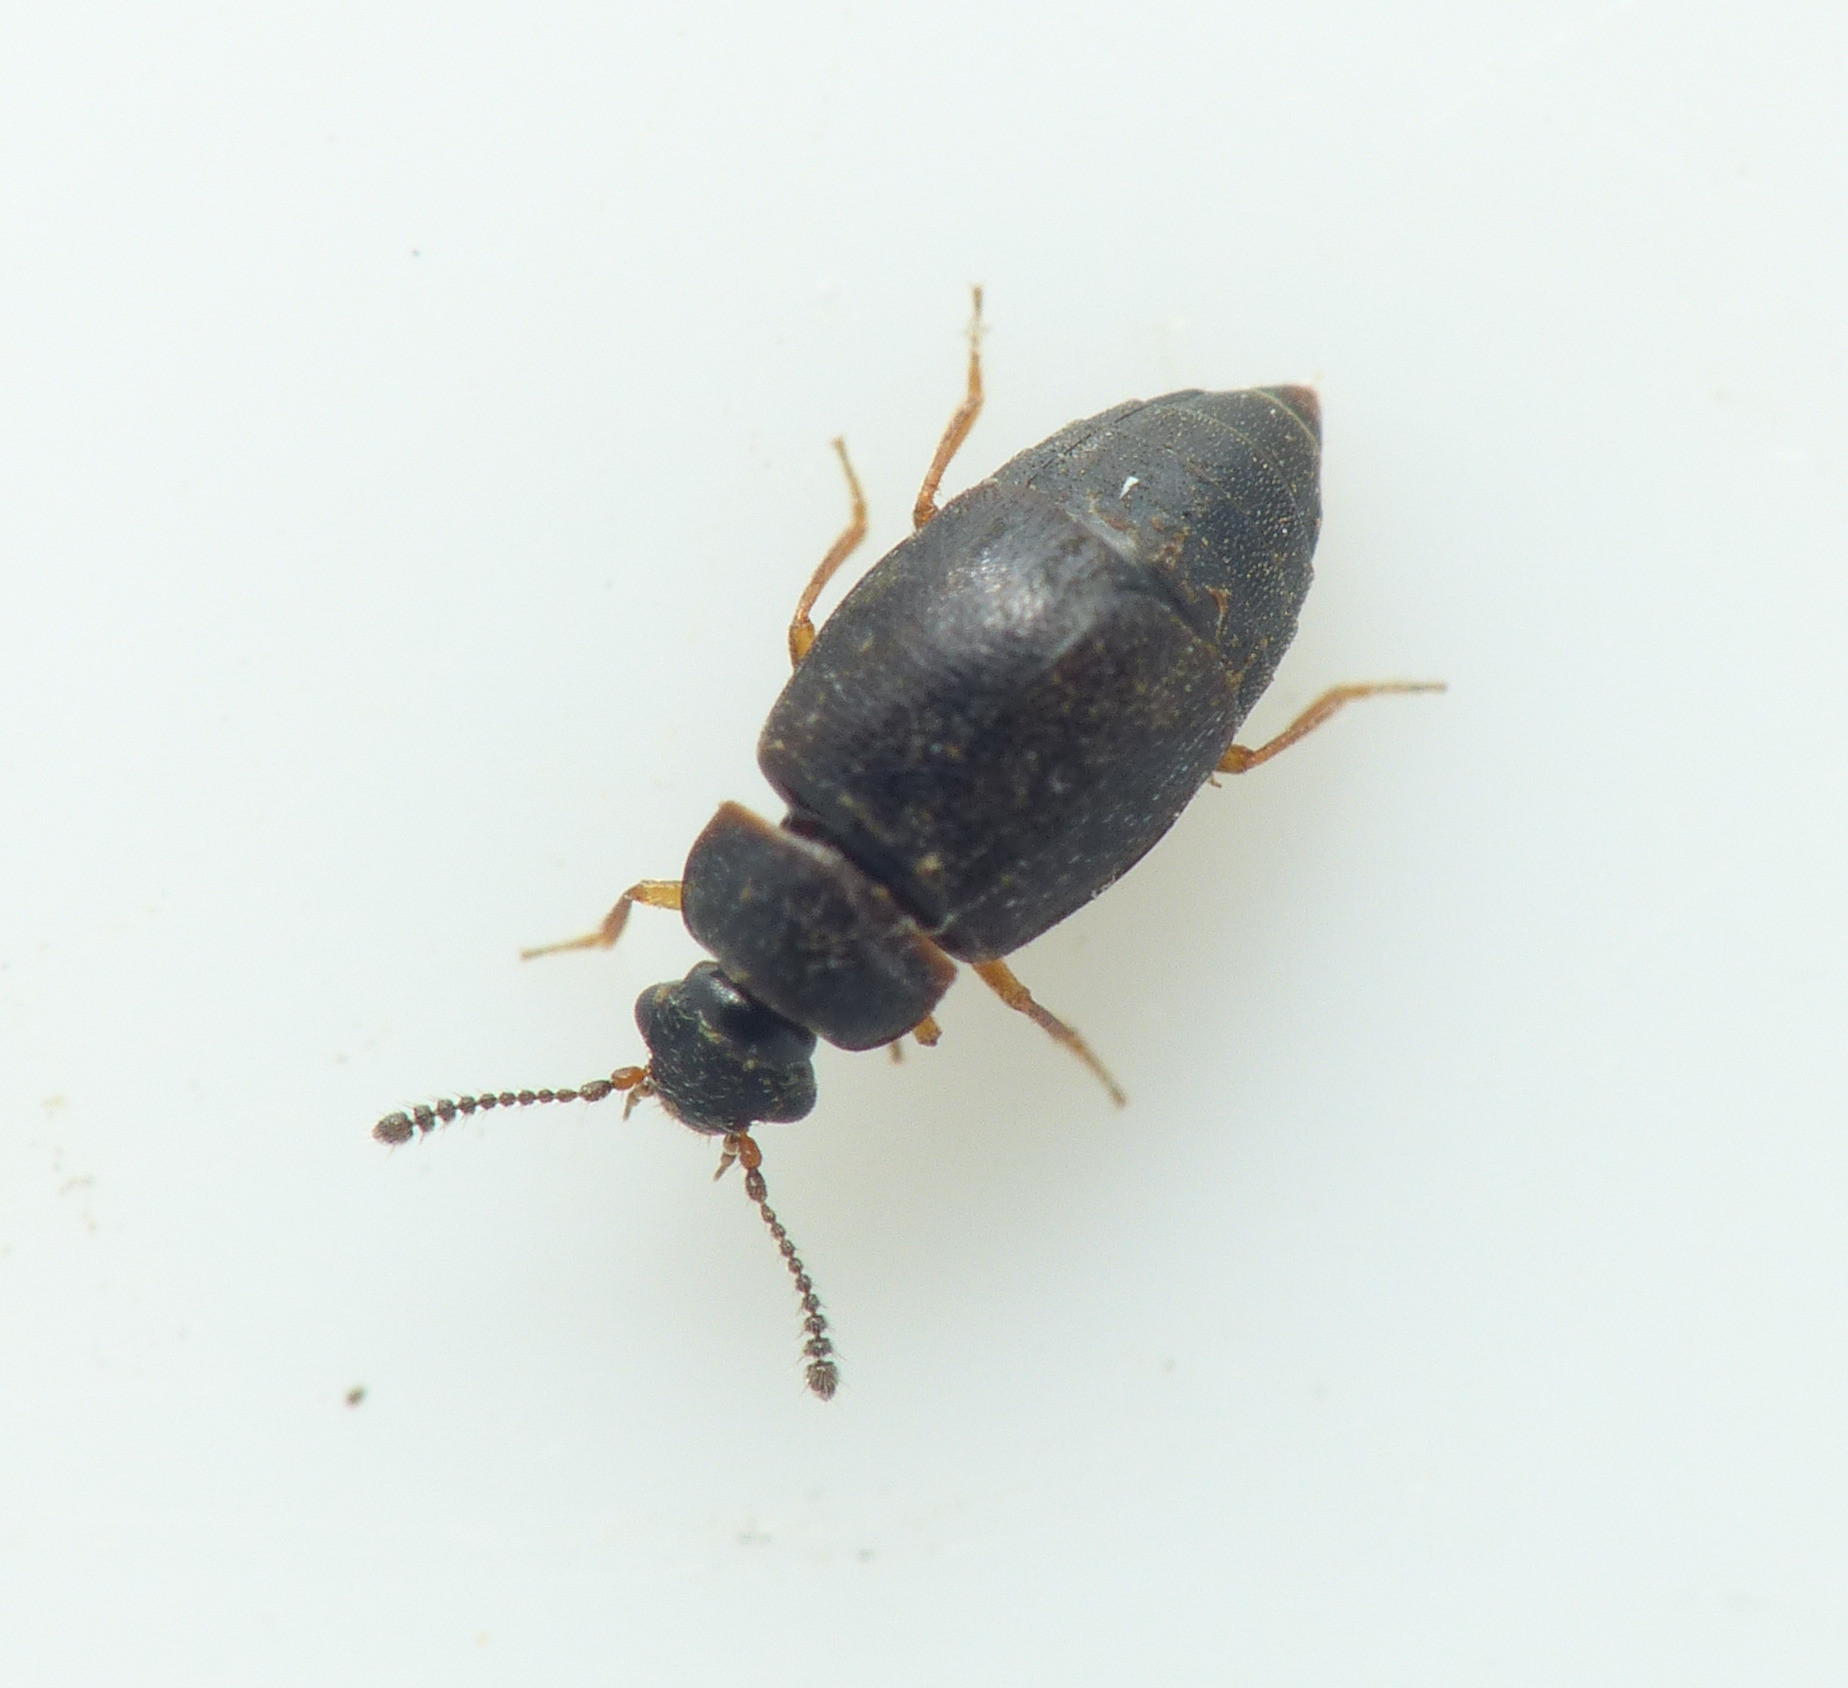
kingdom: Animalia
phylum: Arthropoda
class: Insecta
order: Coleoptera
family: Staphylinidae
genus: Proteinus
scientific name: Proteinus brachypterus
